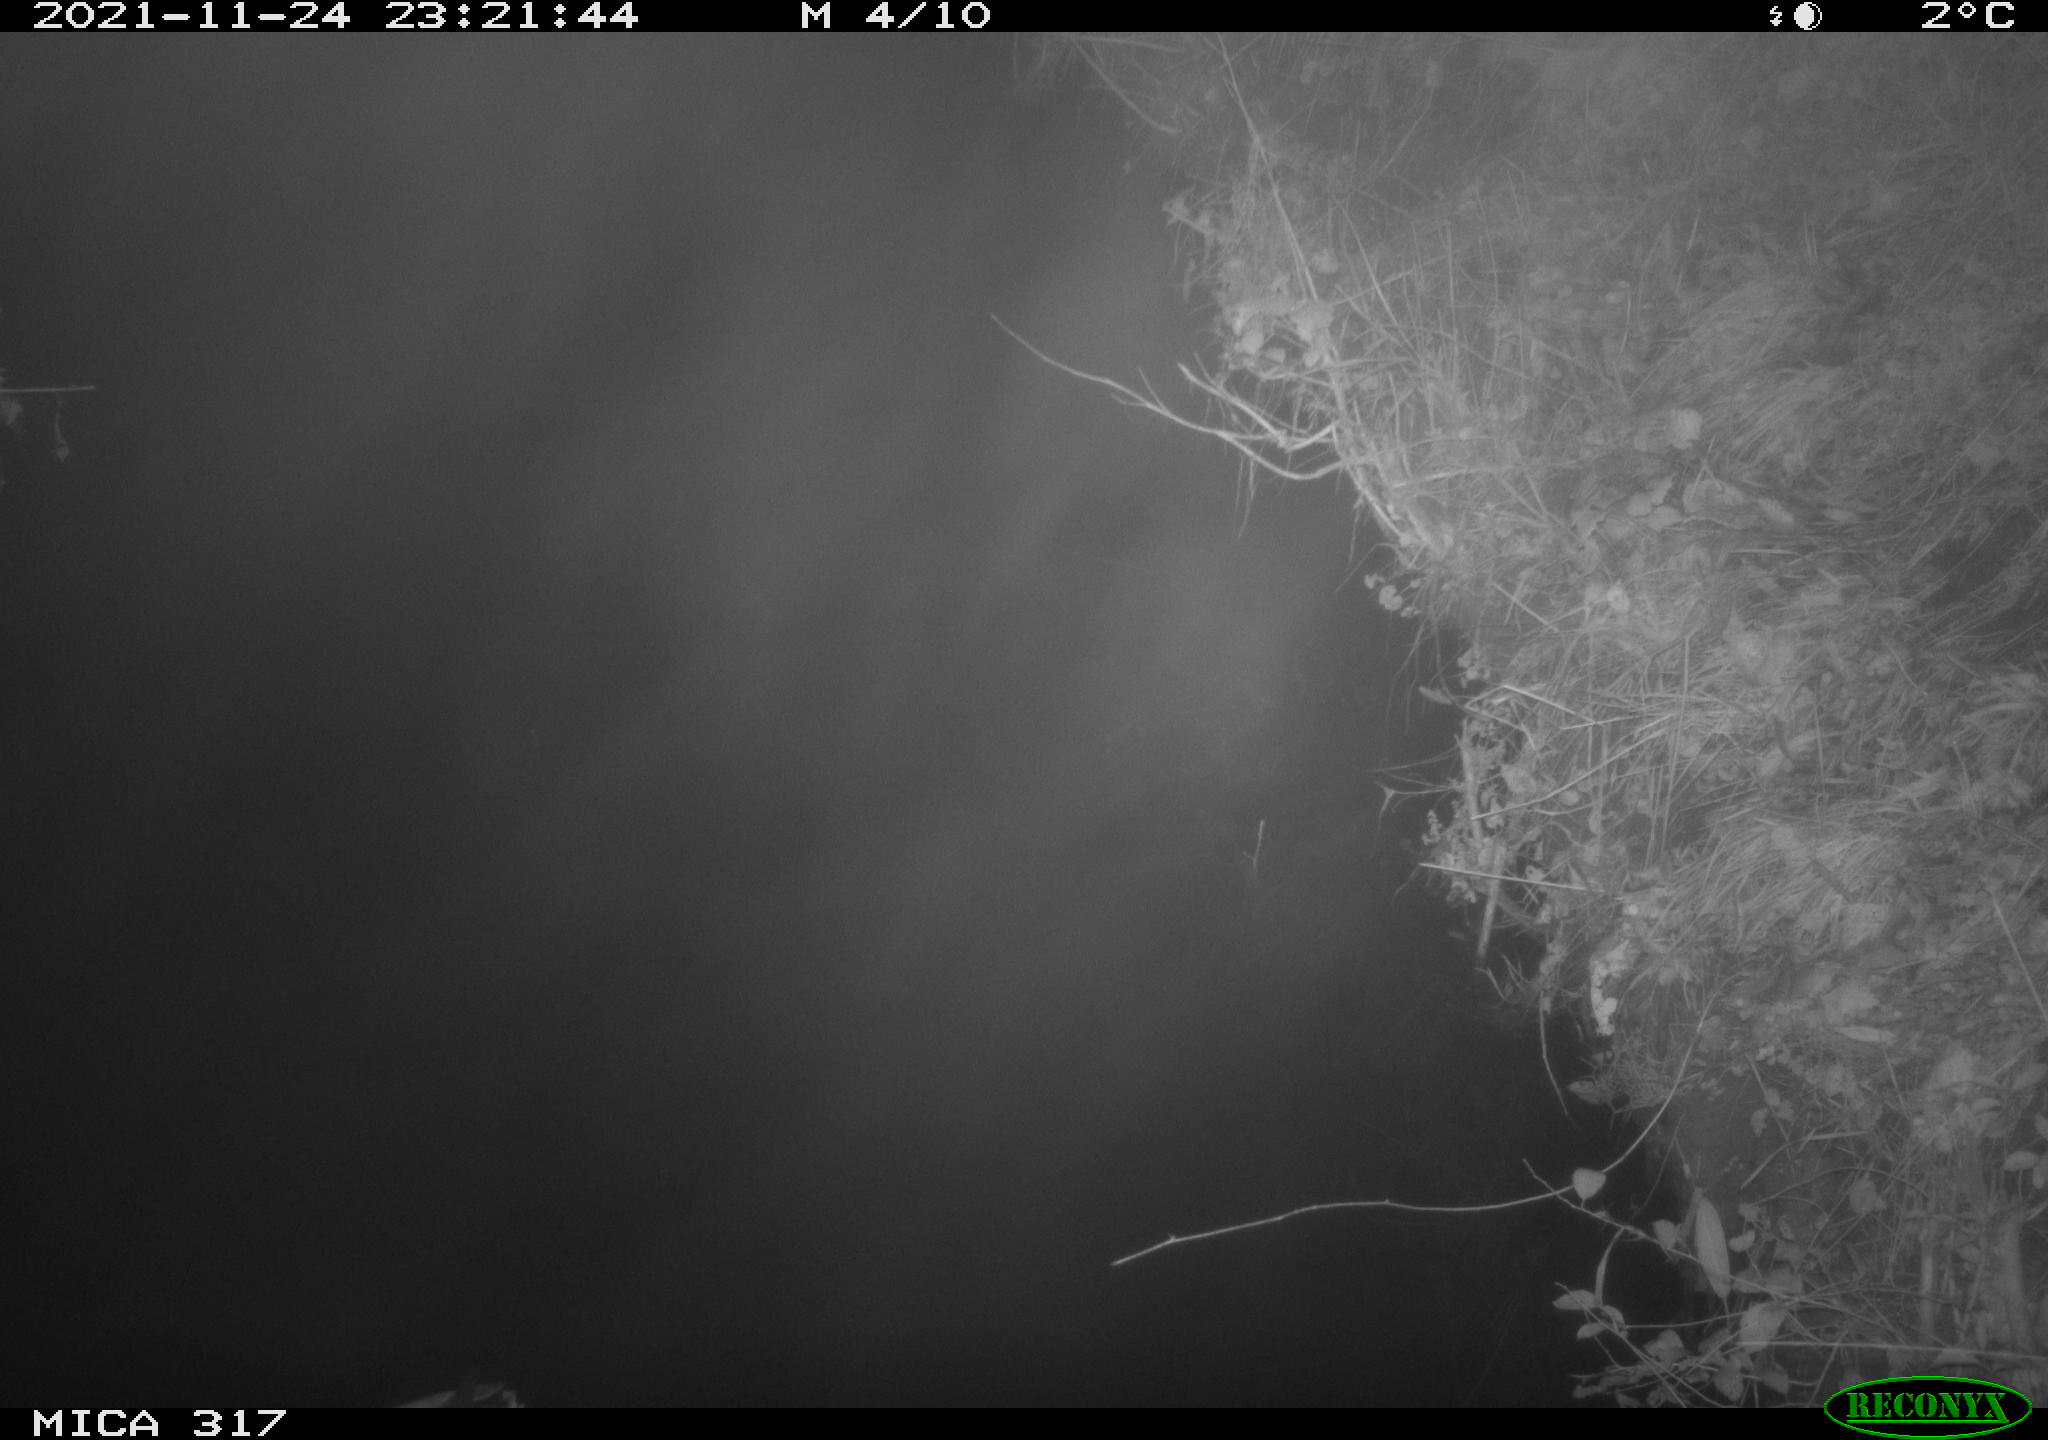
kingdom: Animalia
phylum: Chordata
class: Aves
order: Anseriformes
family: Anatidae
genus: Anas
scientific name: Anas platyrhynchos
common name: Mallard
